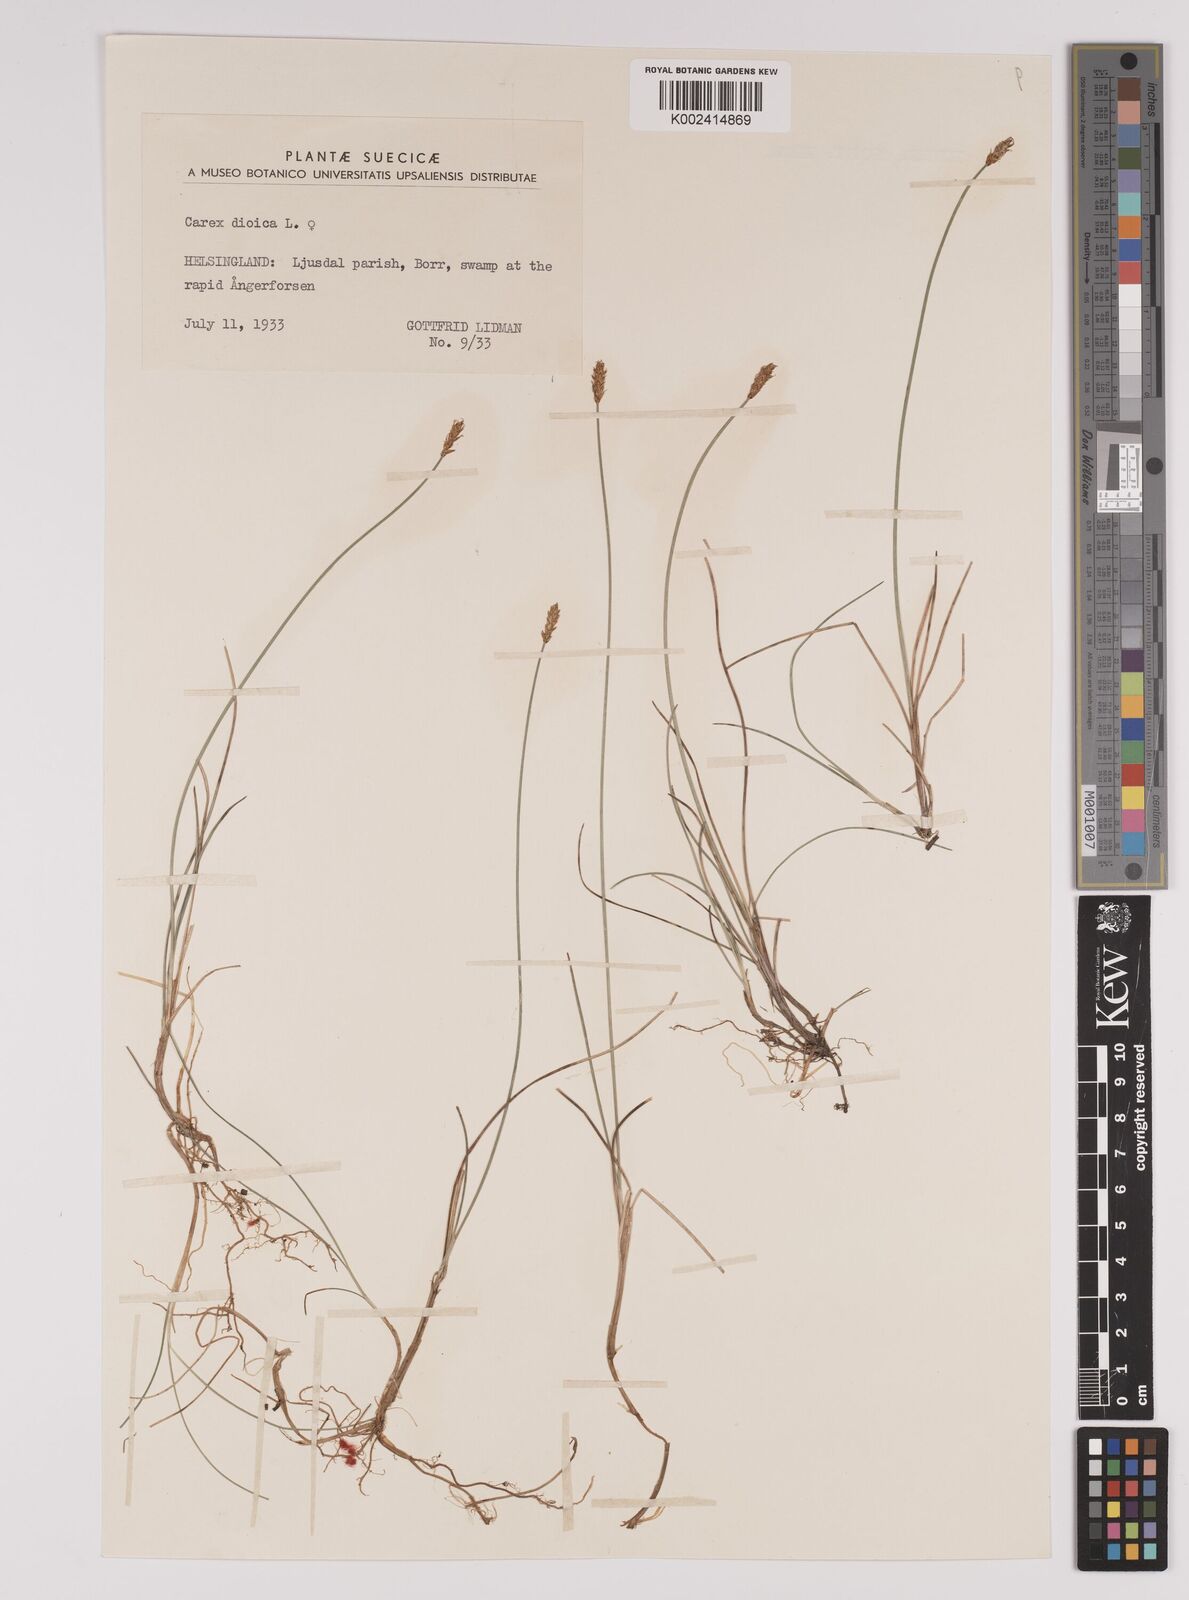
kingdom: Plantae
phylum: Tracheophyta
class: Liliopsida
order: Poales
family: Cyperaceae
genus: Carex
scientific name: Carex dioica
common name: Dioecious sedge
